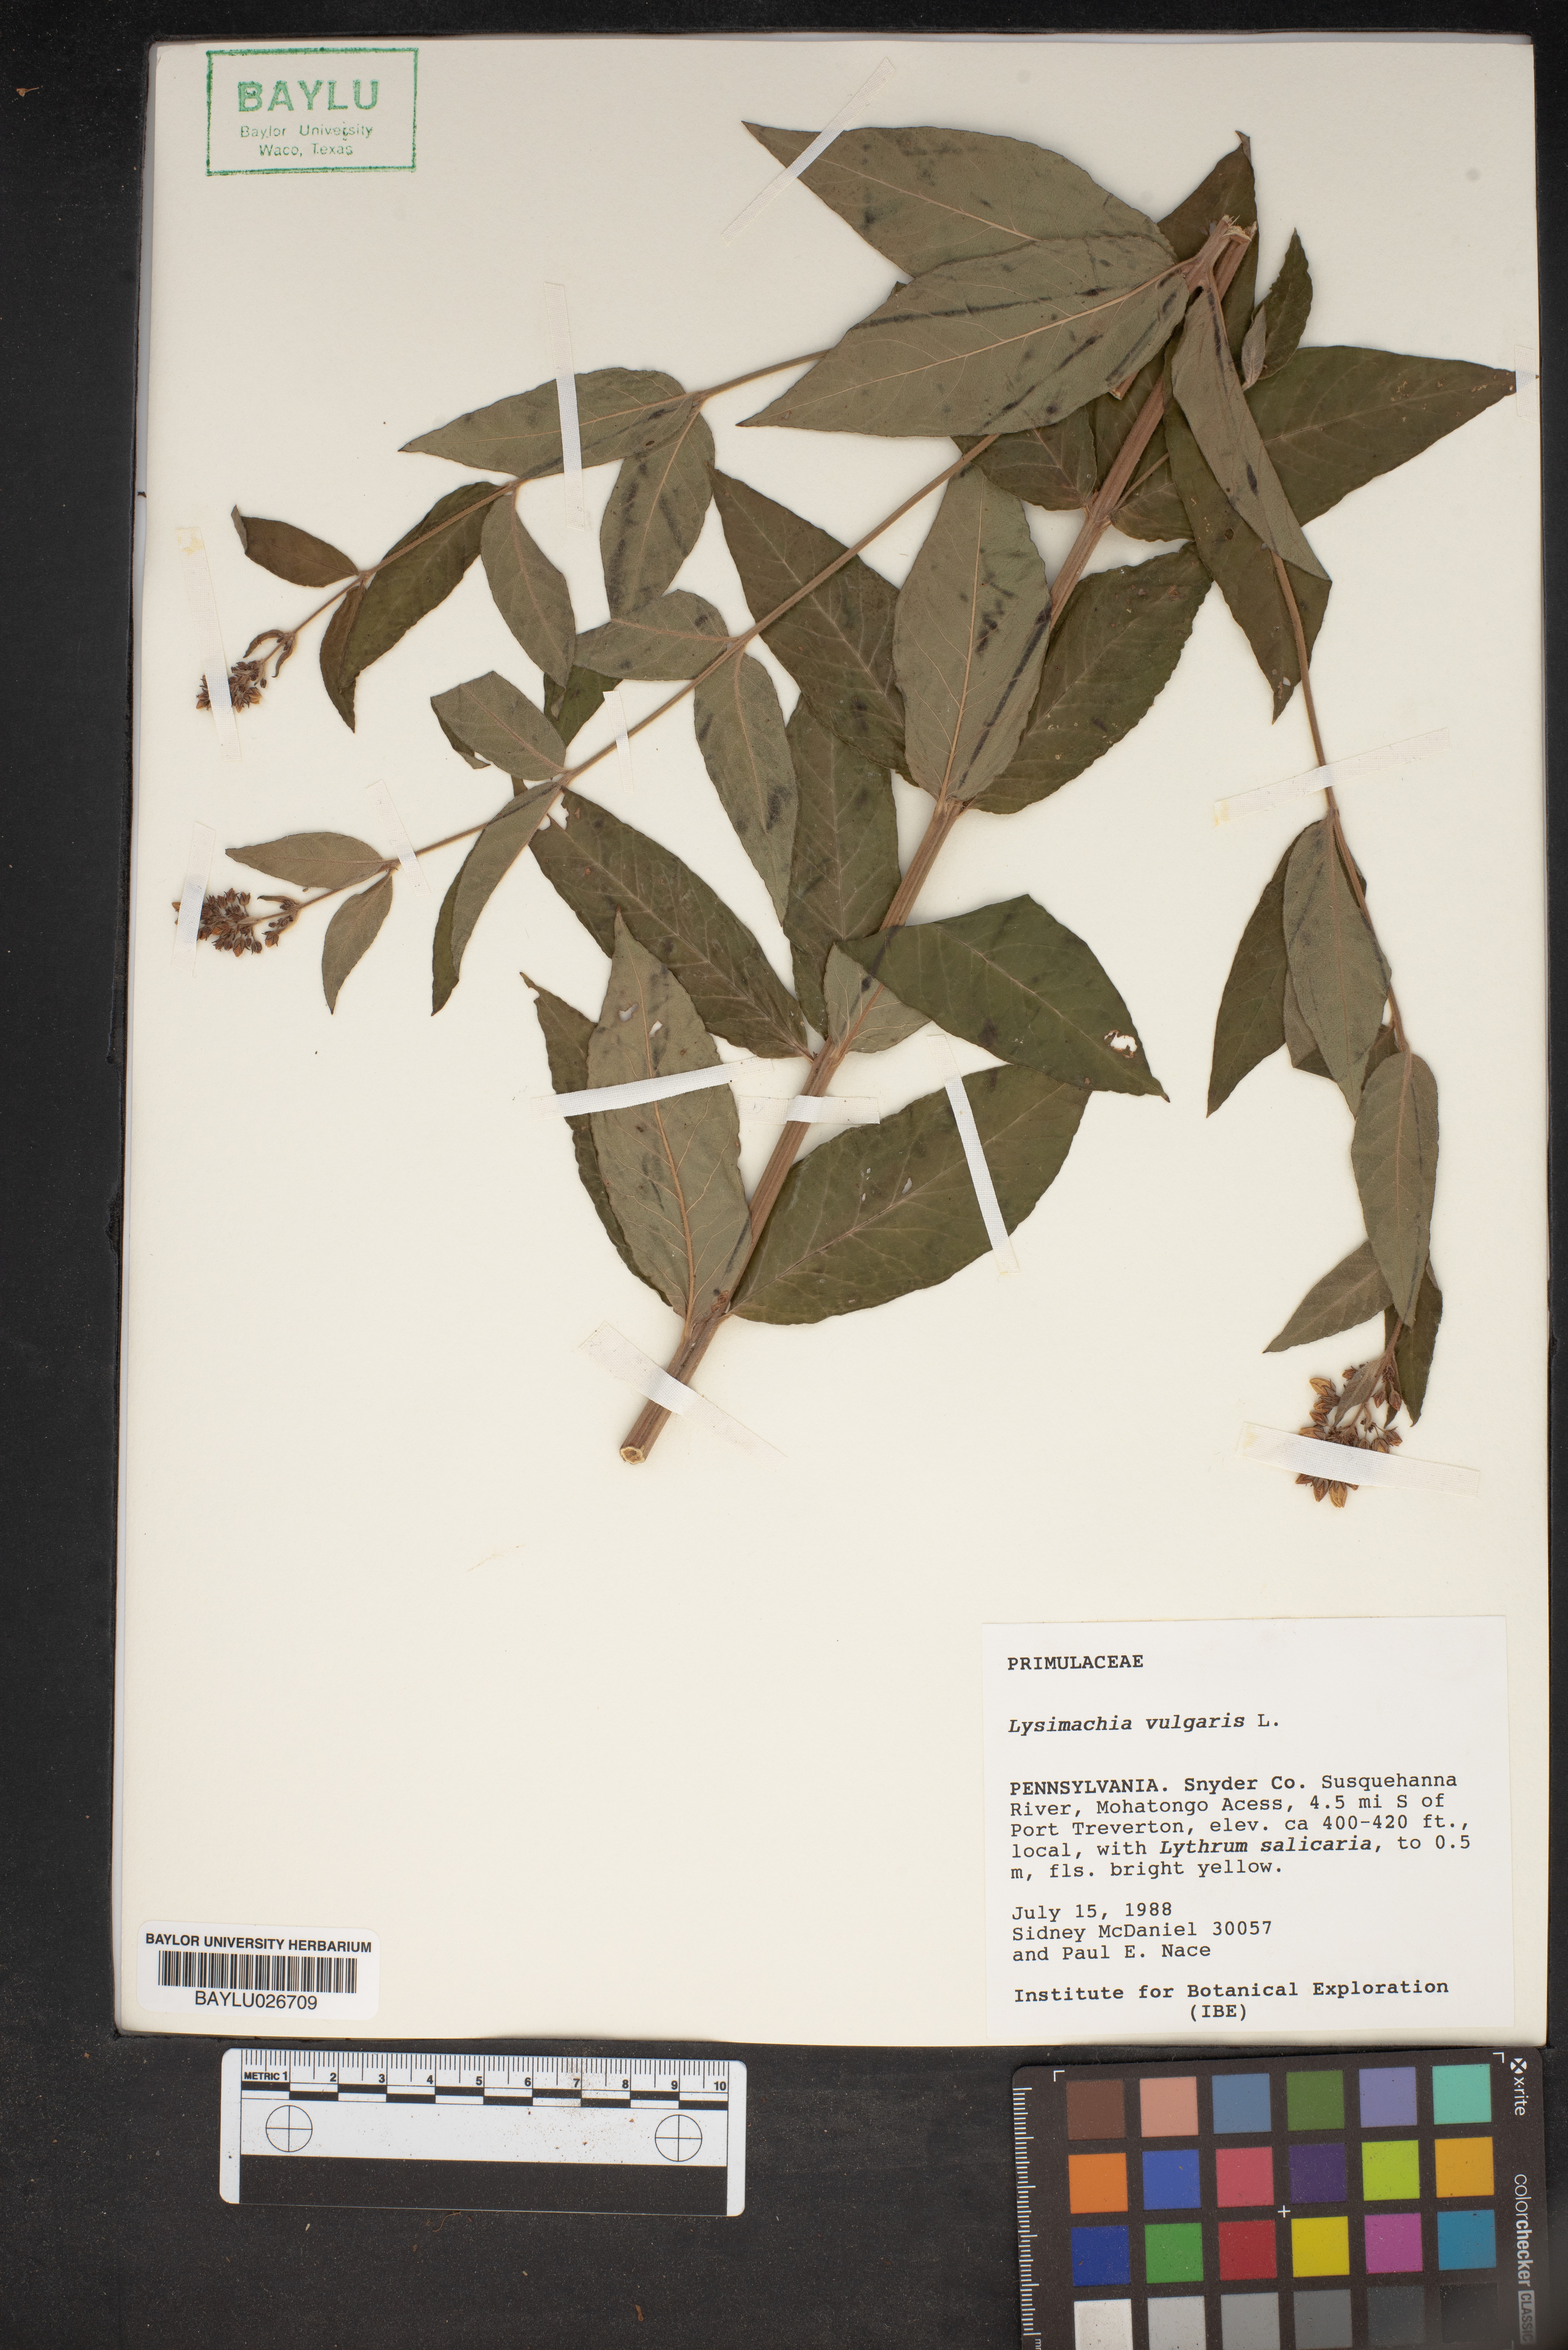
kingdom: Plantae
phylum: Tracheophyta
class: Magnoliopsida
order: Ericales
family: Primulaceae
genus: Lysimachia
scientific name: Lysimachia vulgaris
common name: Yellow loosestrife
